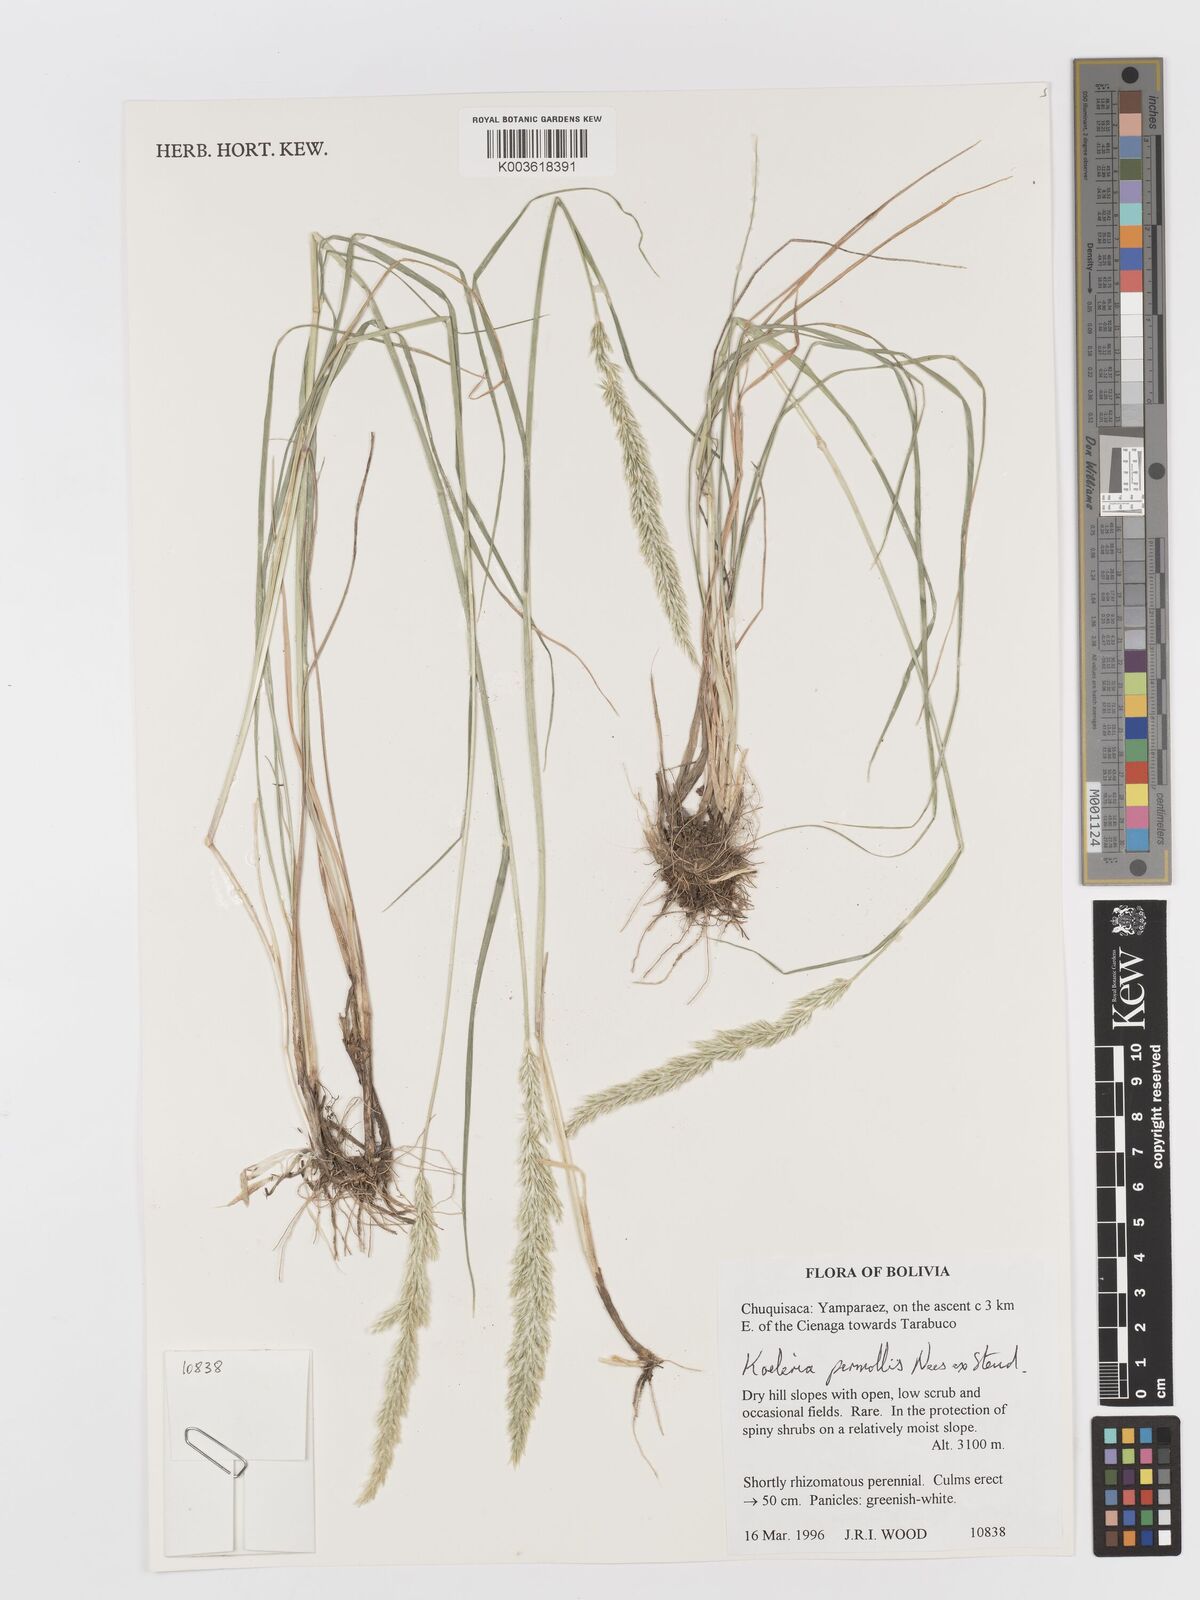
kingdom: Plantae
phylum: Tracheophyta
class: Liliopsida
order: Poales
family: Poaceae
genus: Koeleria
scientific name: Koeleria permollis
